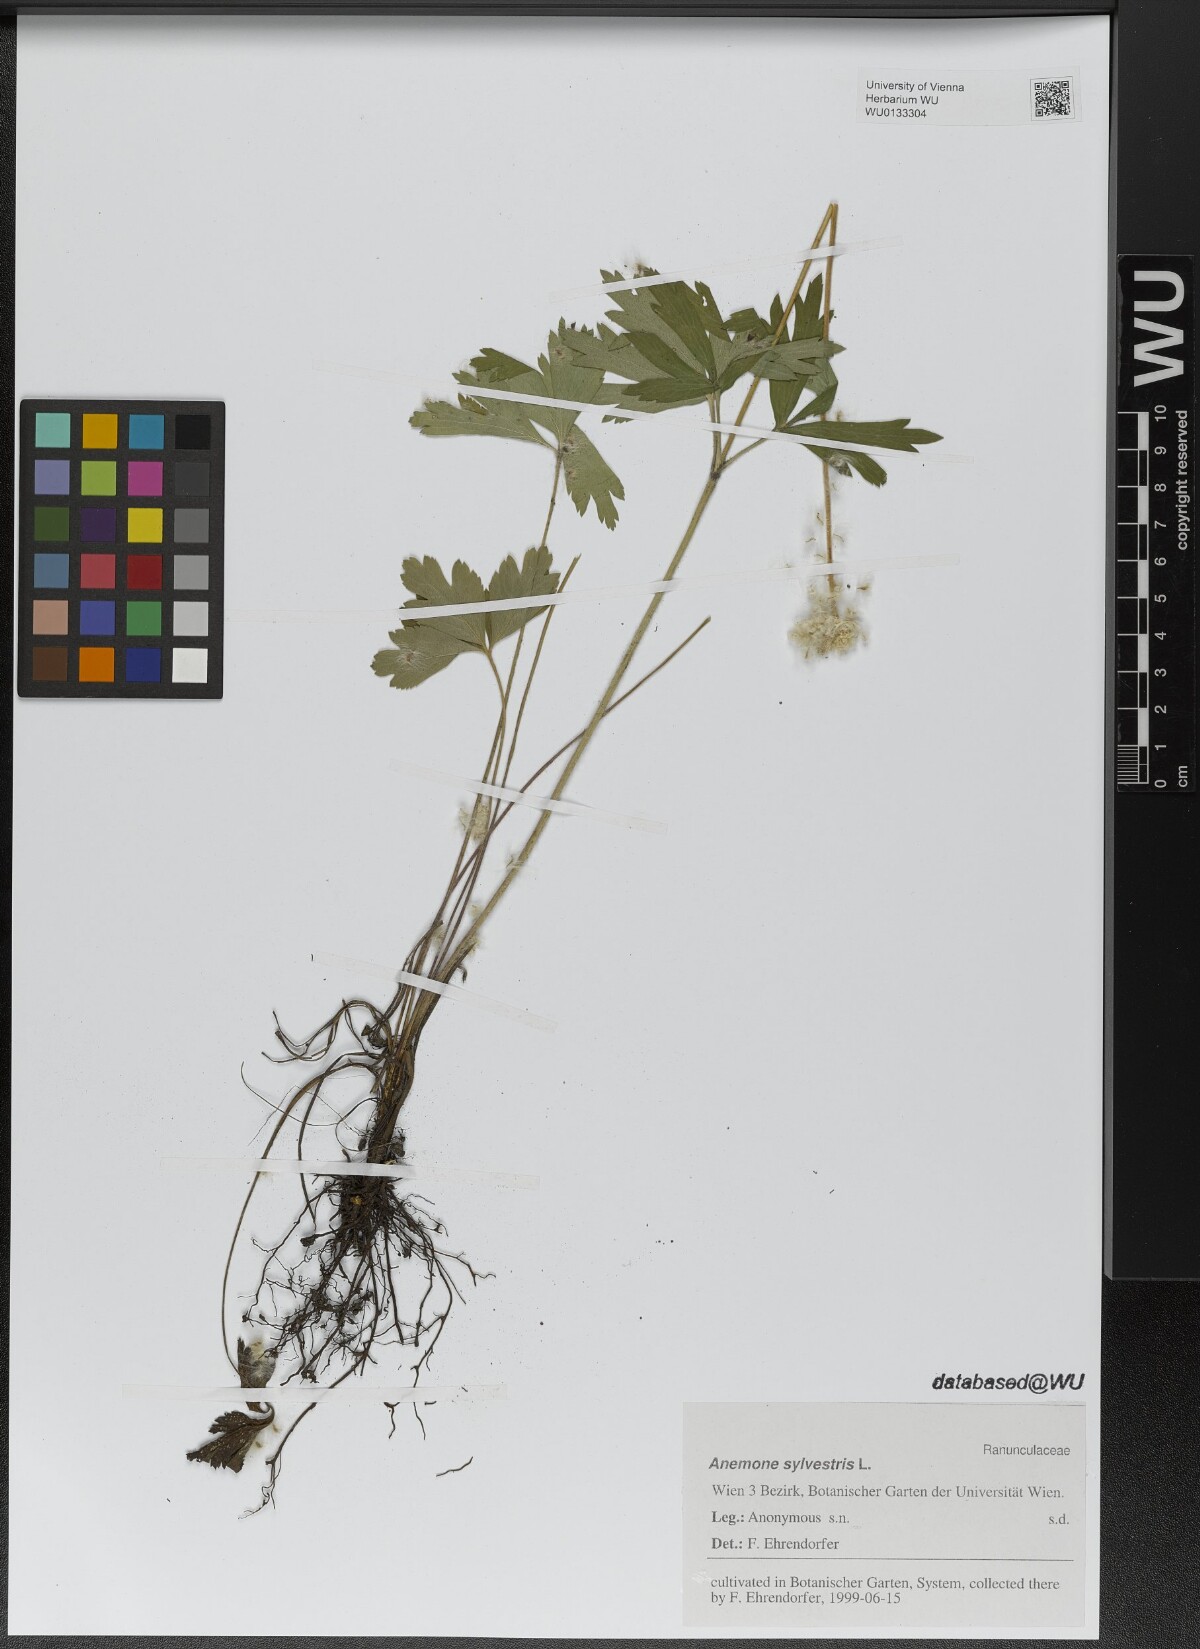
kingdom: Plantae
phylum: Tracheophyta
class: Magnoliopsida
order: Ranunculales
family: Ranunculaceae
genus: Anemone
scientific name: Anemone sylvestris
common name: Snowdrop anemone
